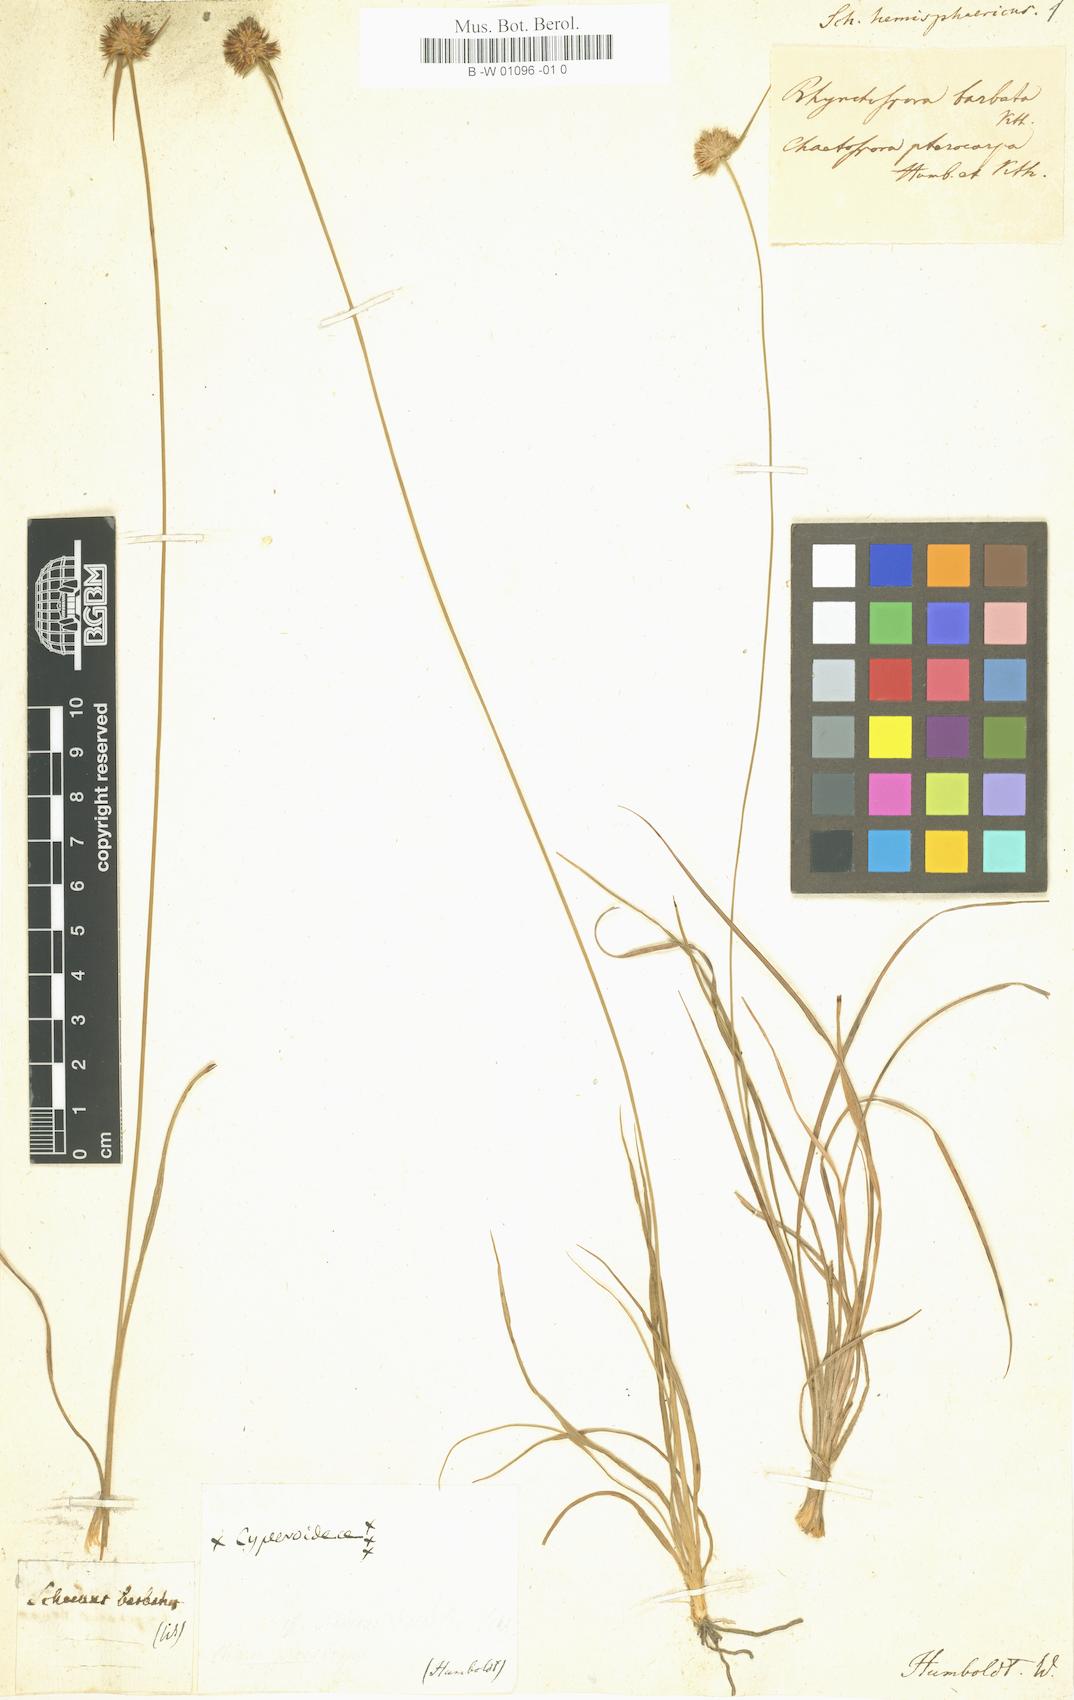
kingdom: Plantae
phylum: Tracheophyta
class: Liliopsida
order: Poales
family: Cyperaceae
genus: Rhynchospora
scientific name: Rhynchospora barbata
